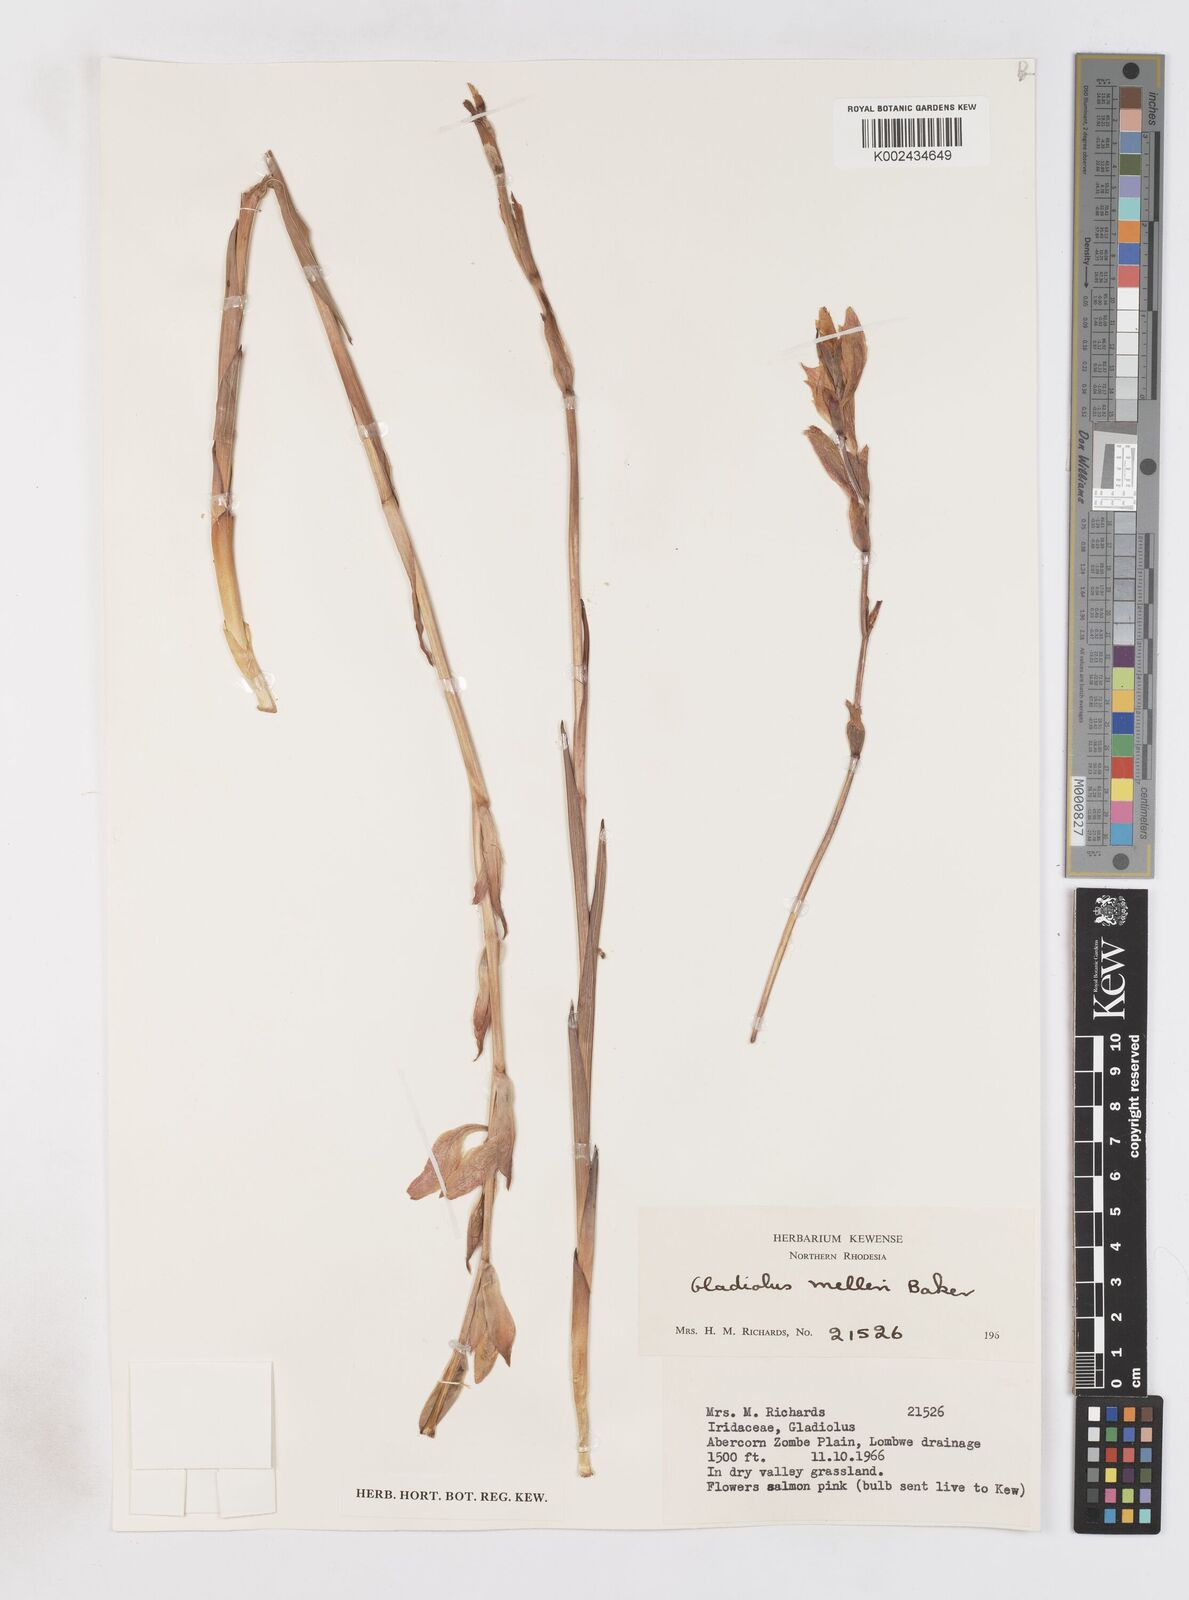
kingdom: Plantae
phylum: Tracheophyta
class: Liliopsida
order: Asparagales
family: Iridaceae
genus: Gladiolus
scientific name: Gladiolus melleri
